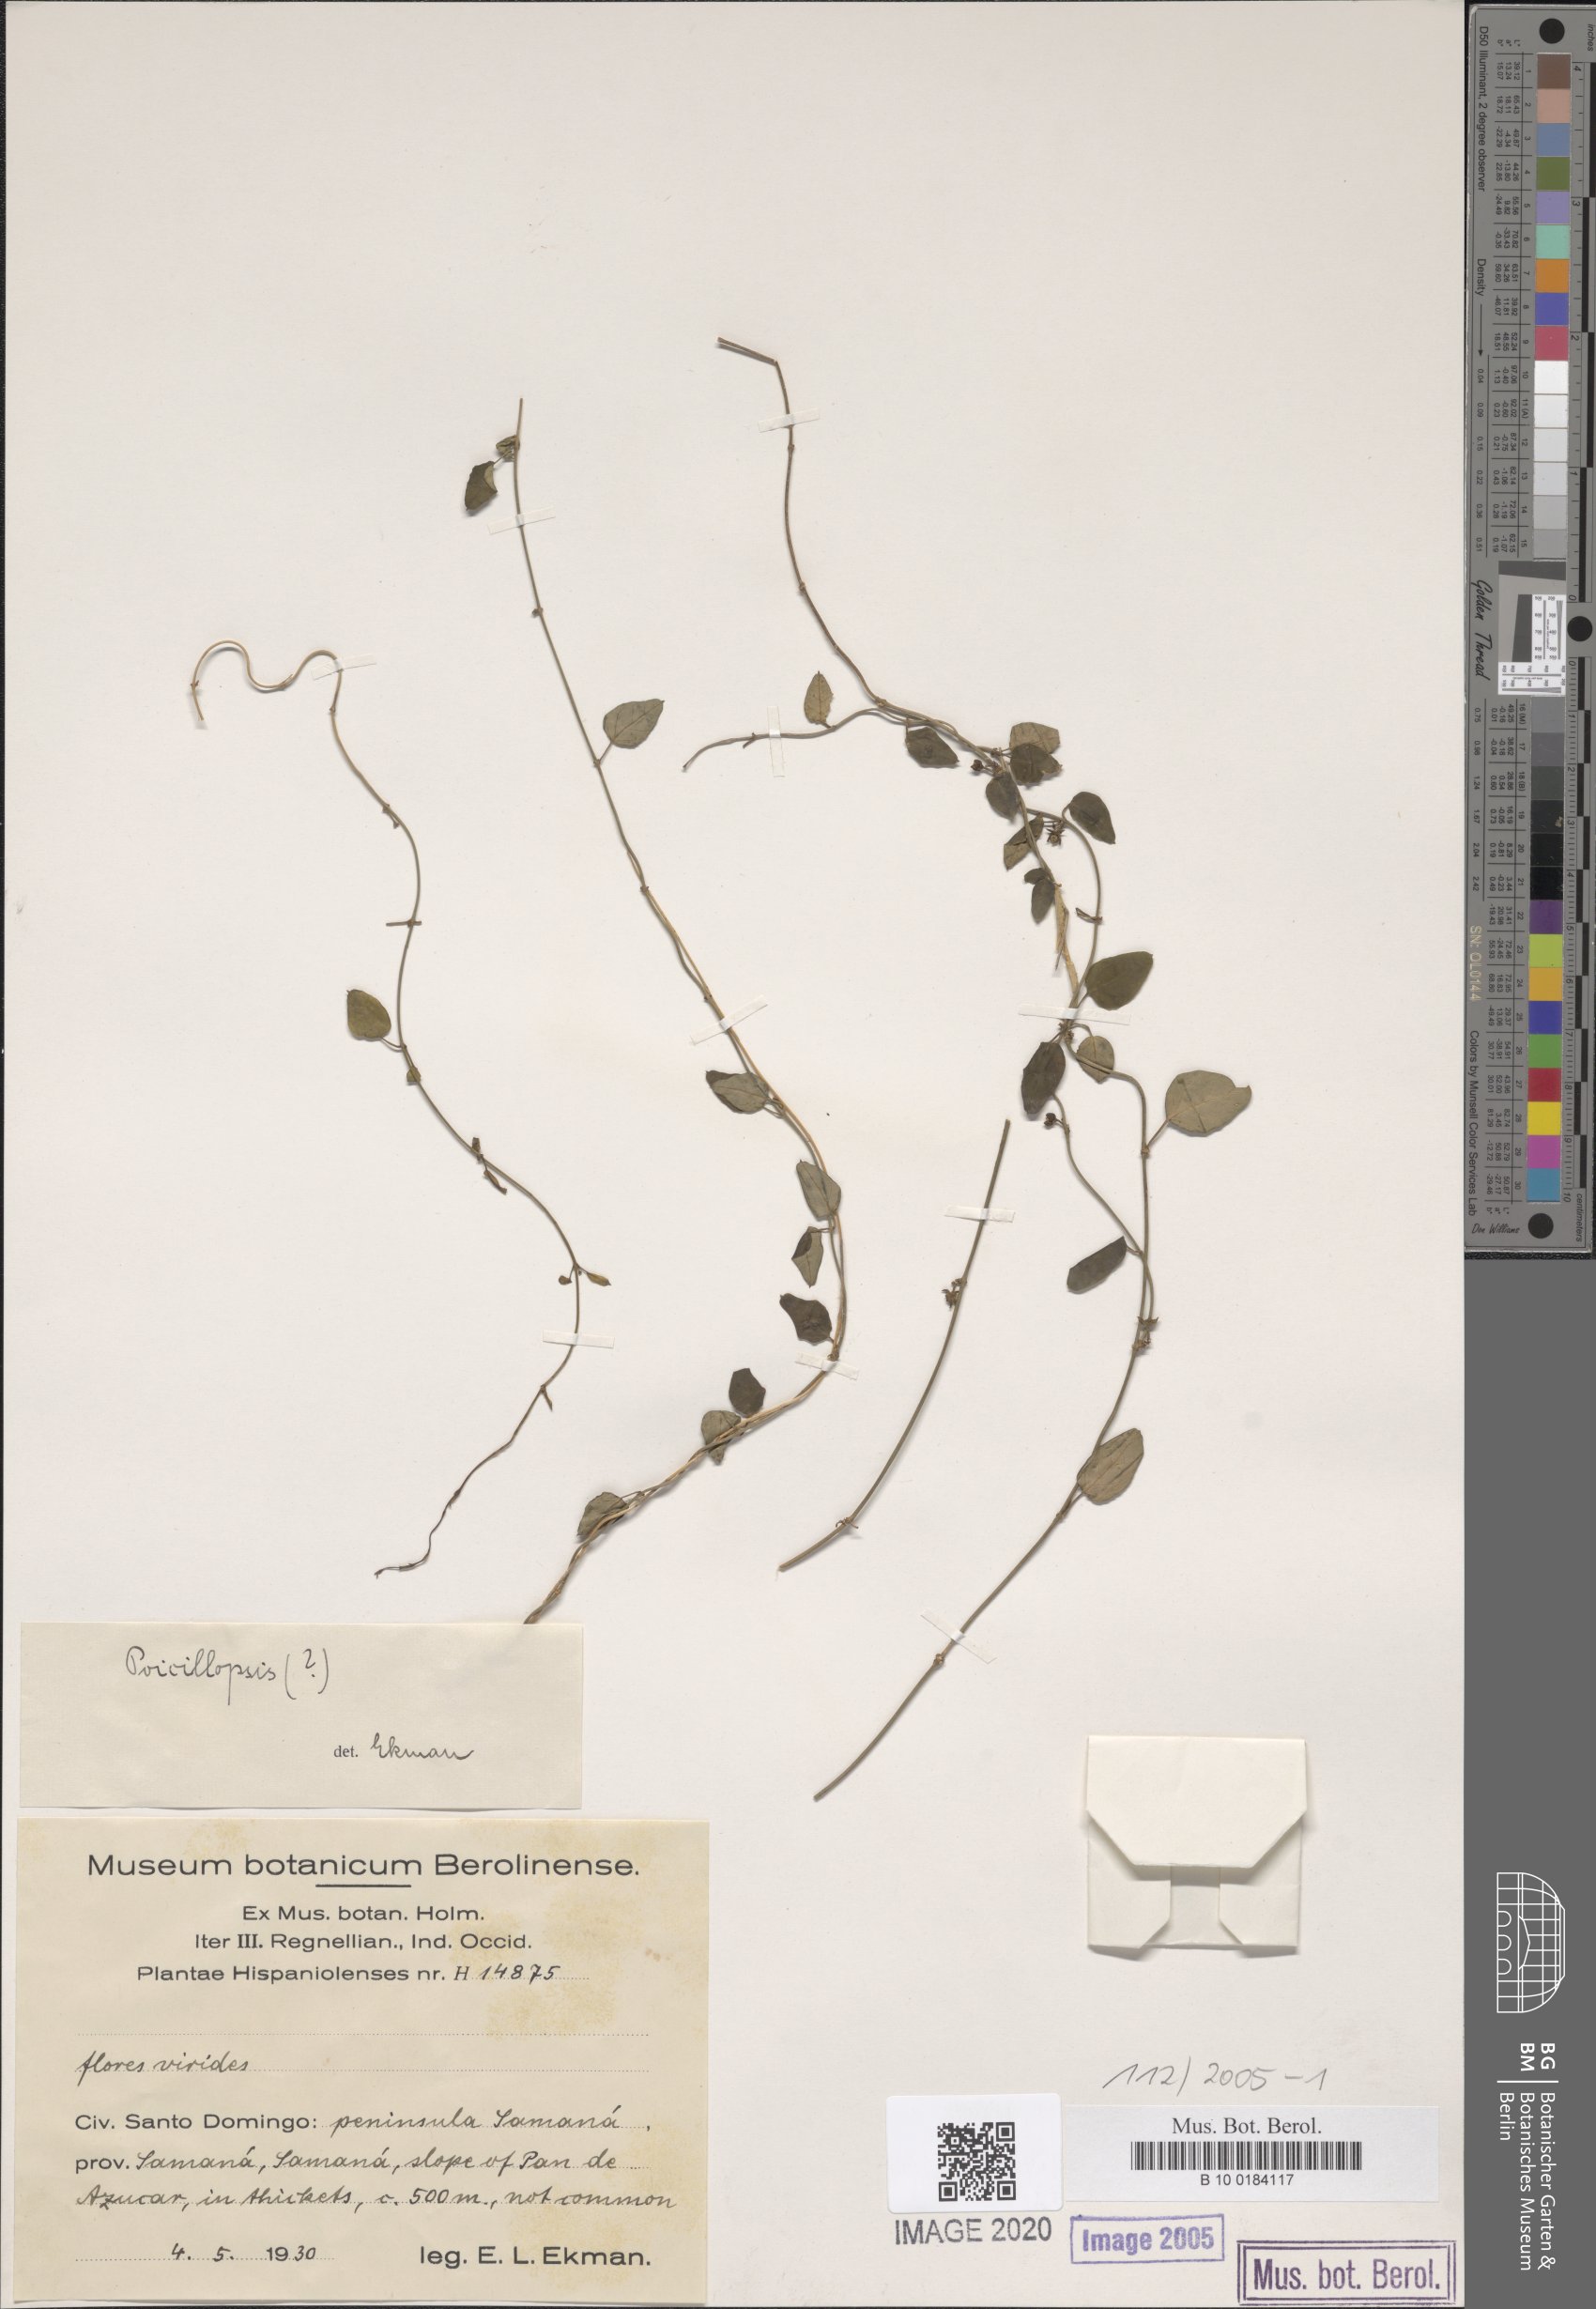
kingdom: Plantae
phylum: Tracheophyta
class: Magnoliopsida
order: Gentianales
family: Apocynaceae
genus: Poicillopsis
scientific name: Poicillopsis
